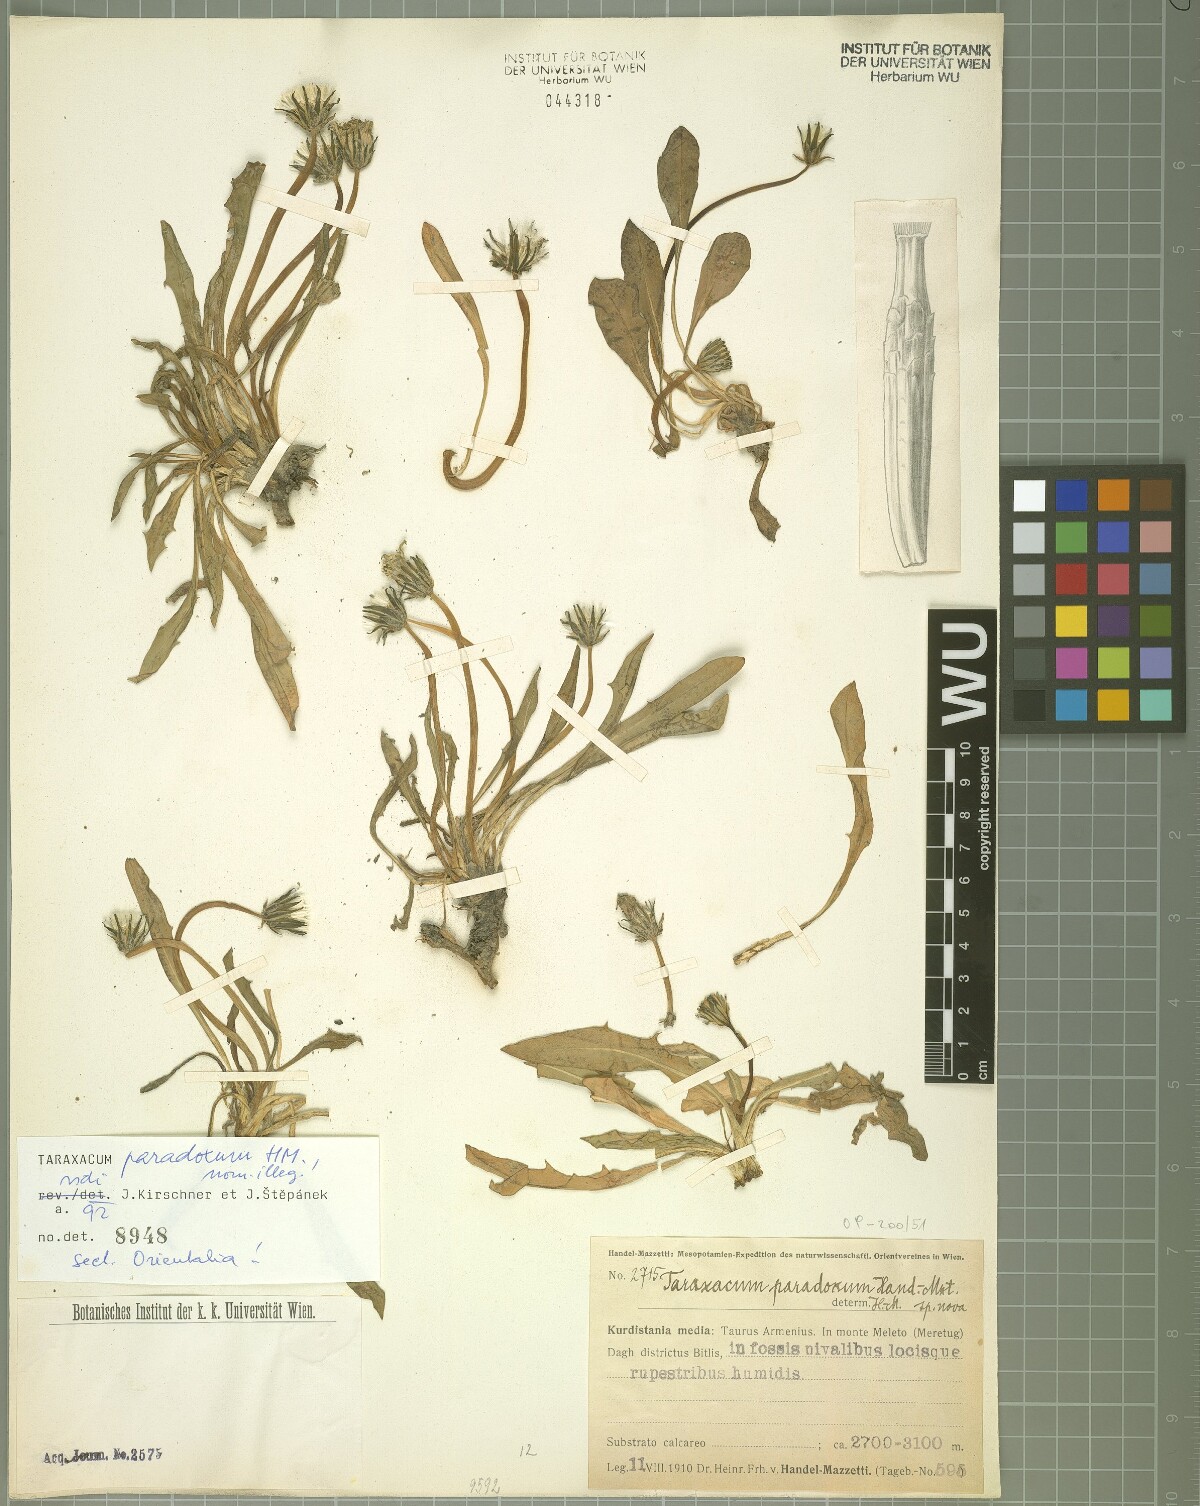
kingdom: Plantae
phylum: Tracheophyta
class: Magnoliopsida
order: Asterales
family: Asteraceae
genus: Taraxacum
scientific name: Taraxacum stevenii
